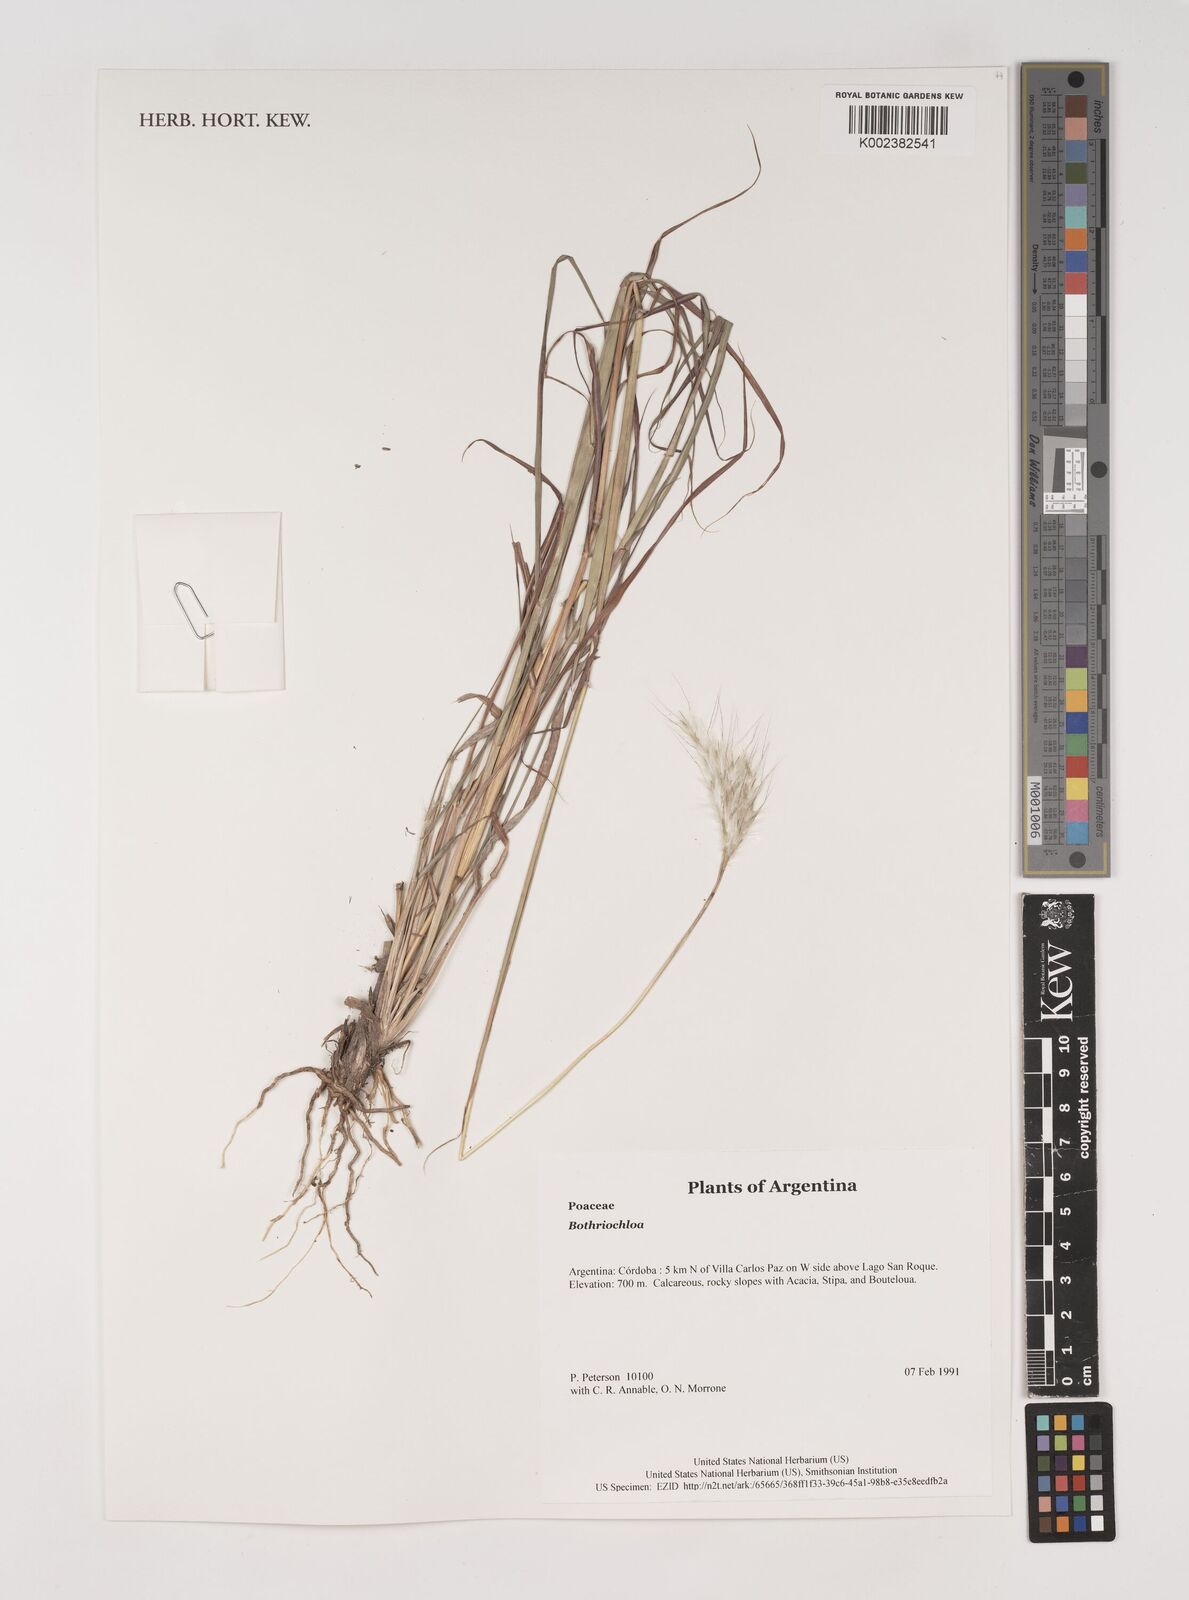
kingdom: Plantae
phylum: Tracheophyta
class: Liliopsida
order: Poales
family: Poaceae
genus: Bothriochloa
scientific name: Bothriochloa
